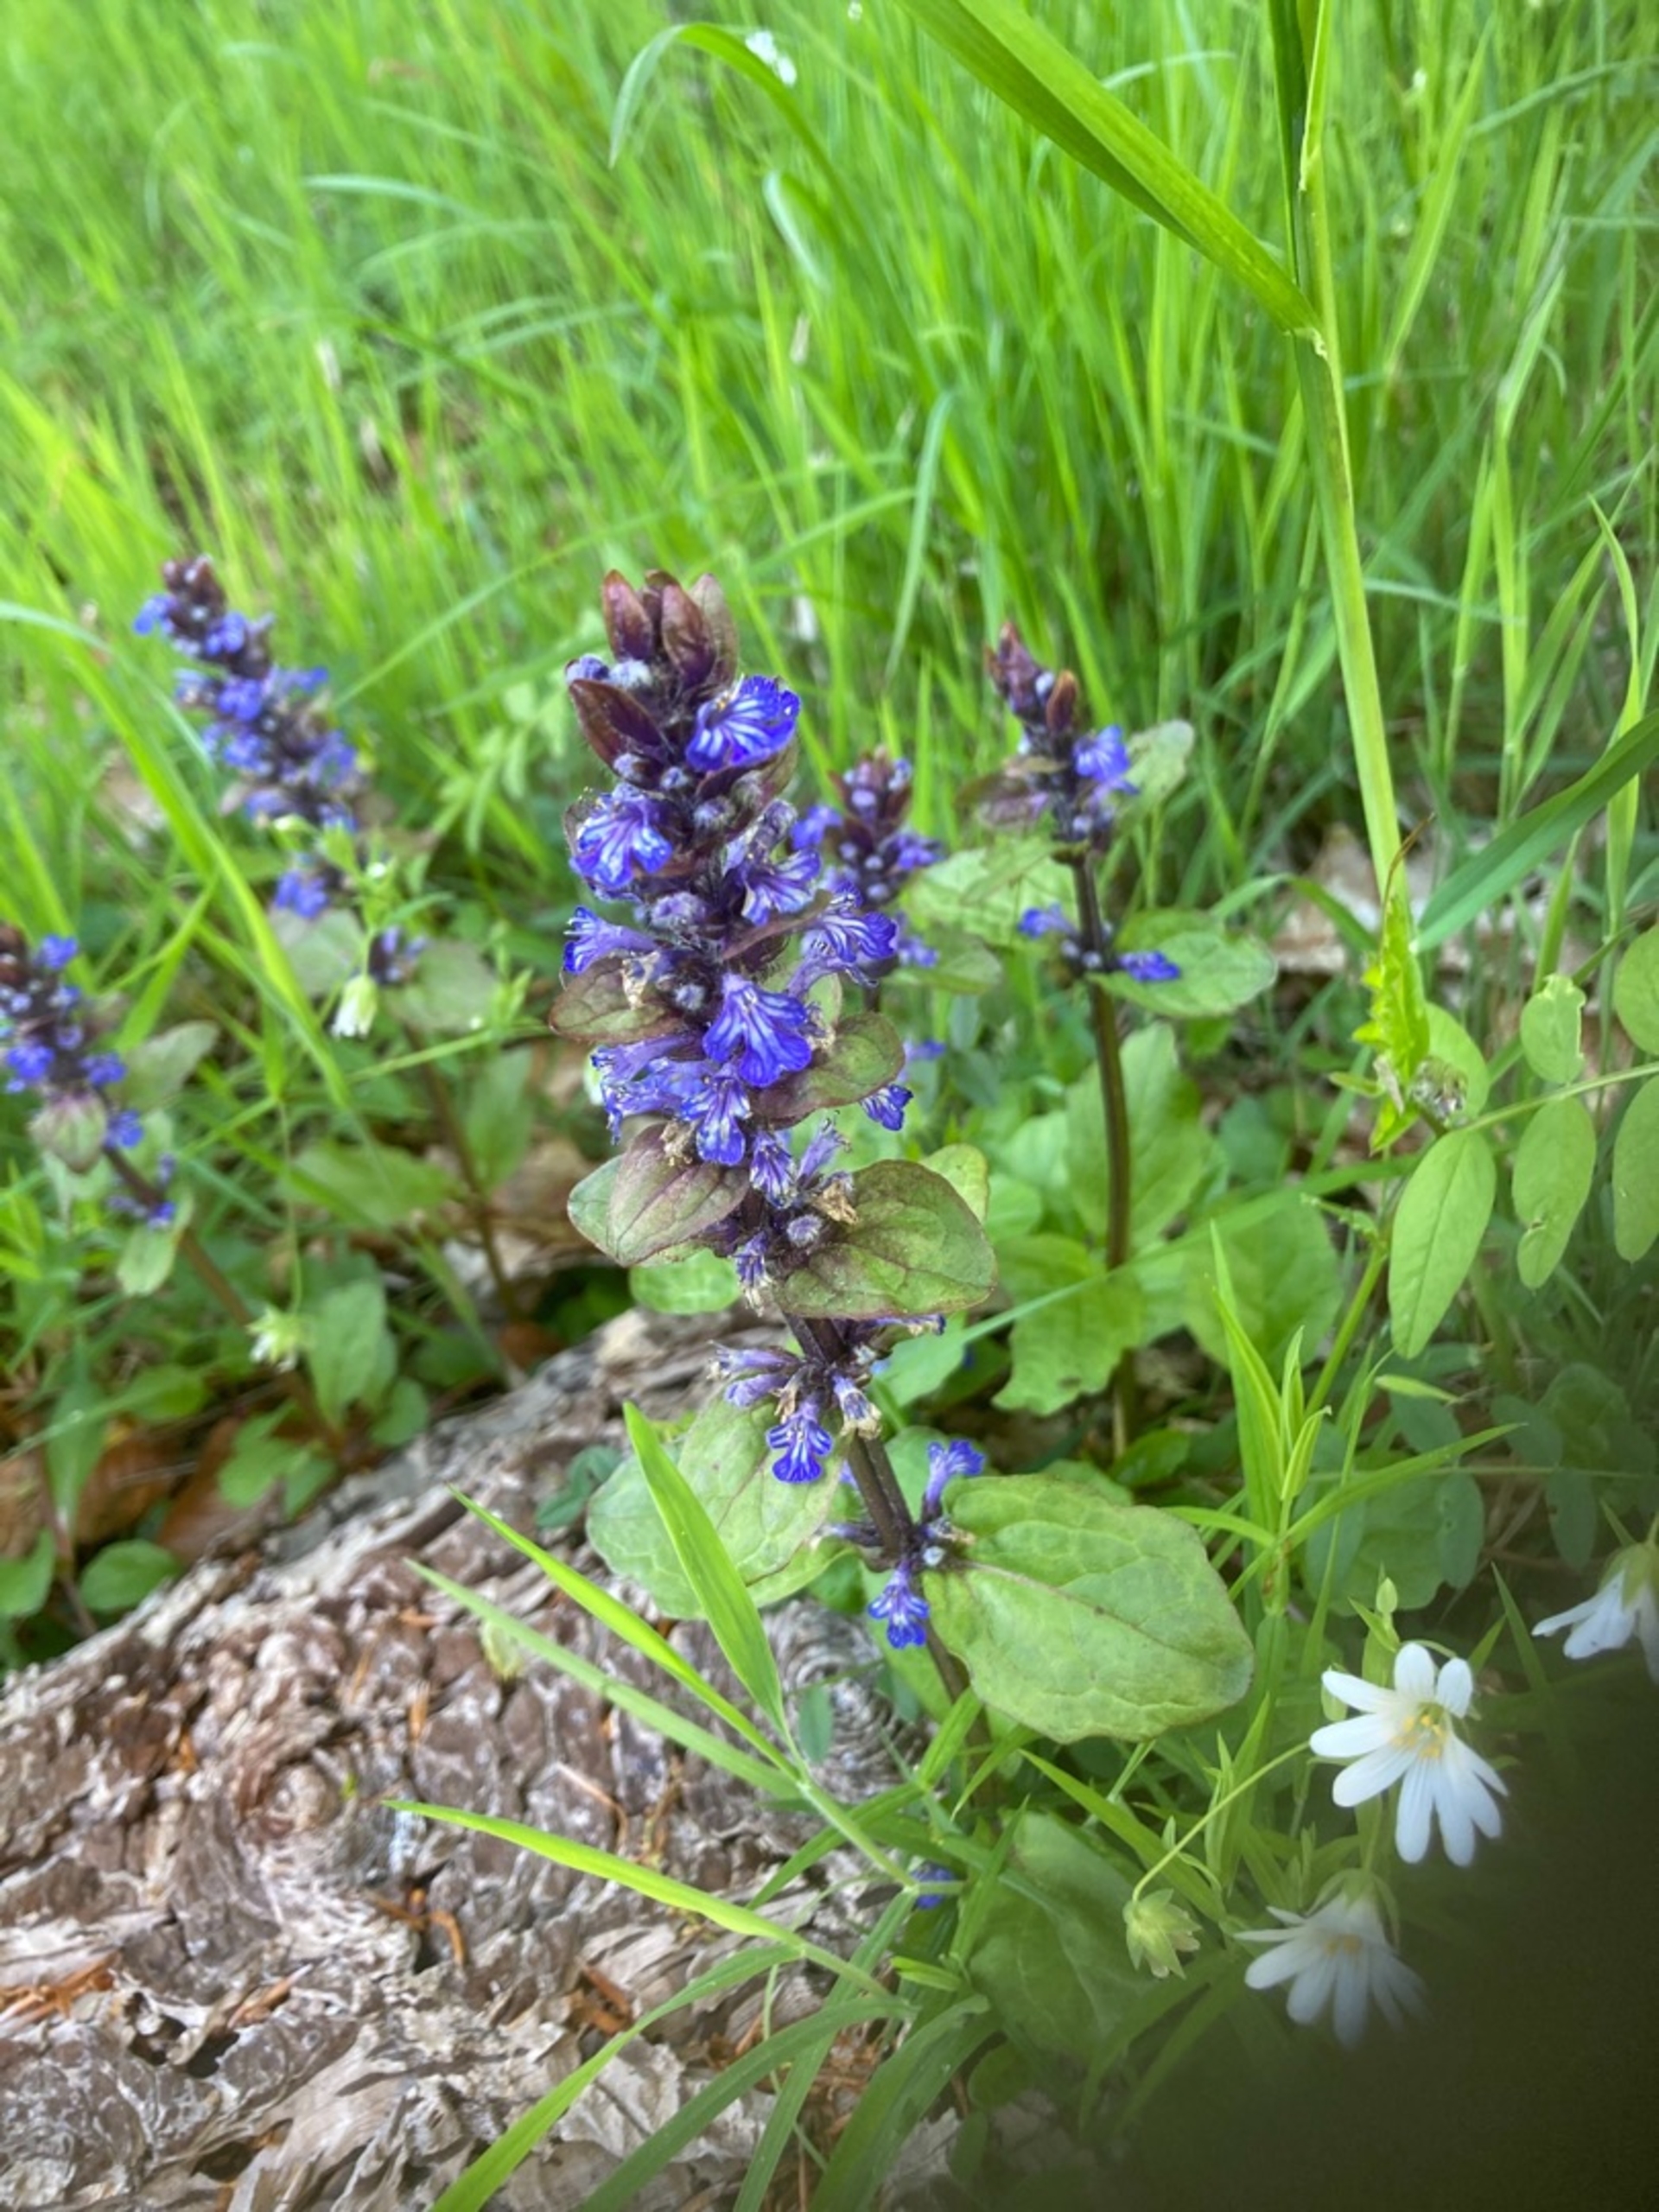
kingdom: Plantae
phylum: Tracheophyta
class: Magnoliopsida
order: Lamiales
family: Lamiaceae
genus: Ajuga
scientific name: Ajuga reptans
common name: Krybende læbeløs
